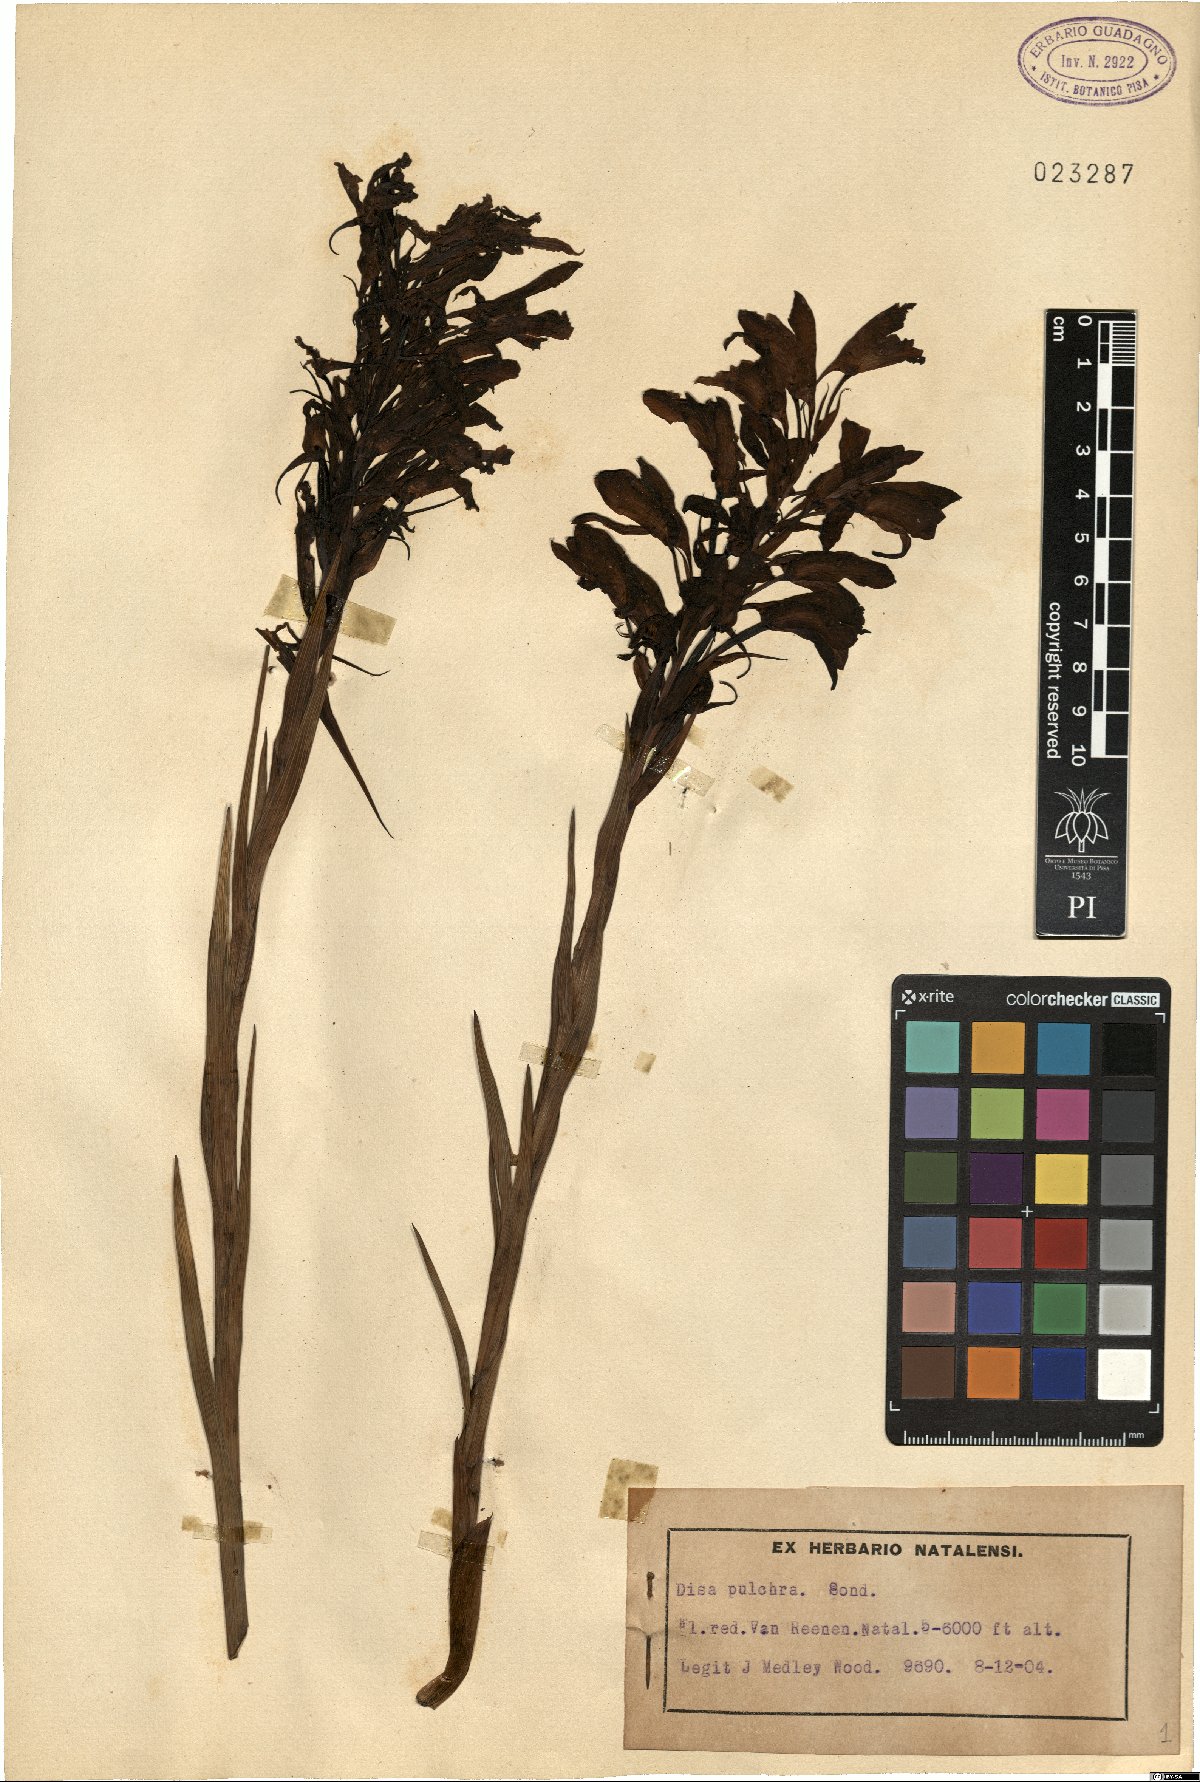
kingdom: Plantae
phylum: Tracheophyta
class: Liliopsida
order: Asparagales
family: Orchidaceae
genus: Disa
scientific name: Disa pulchra
